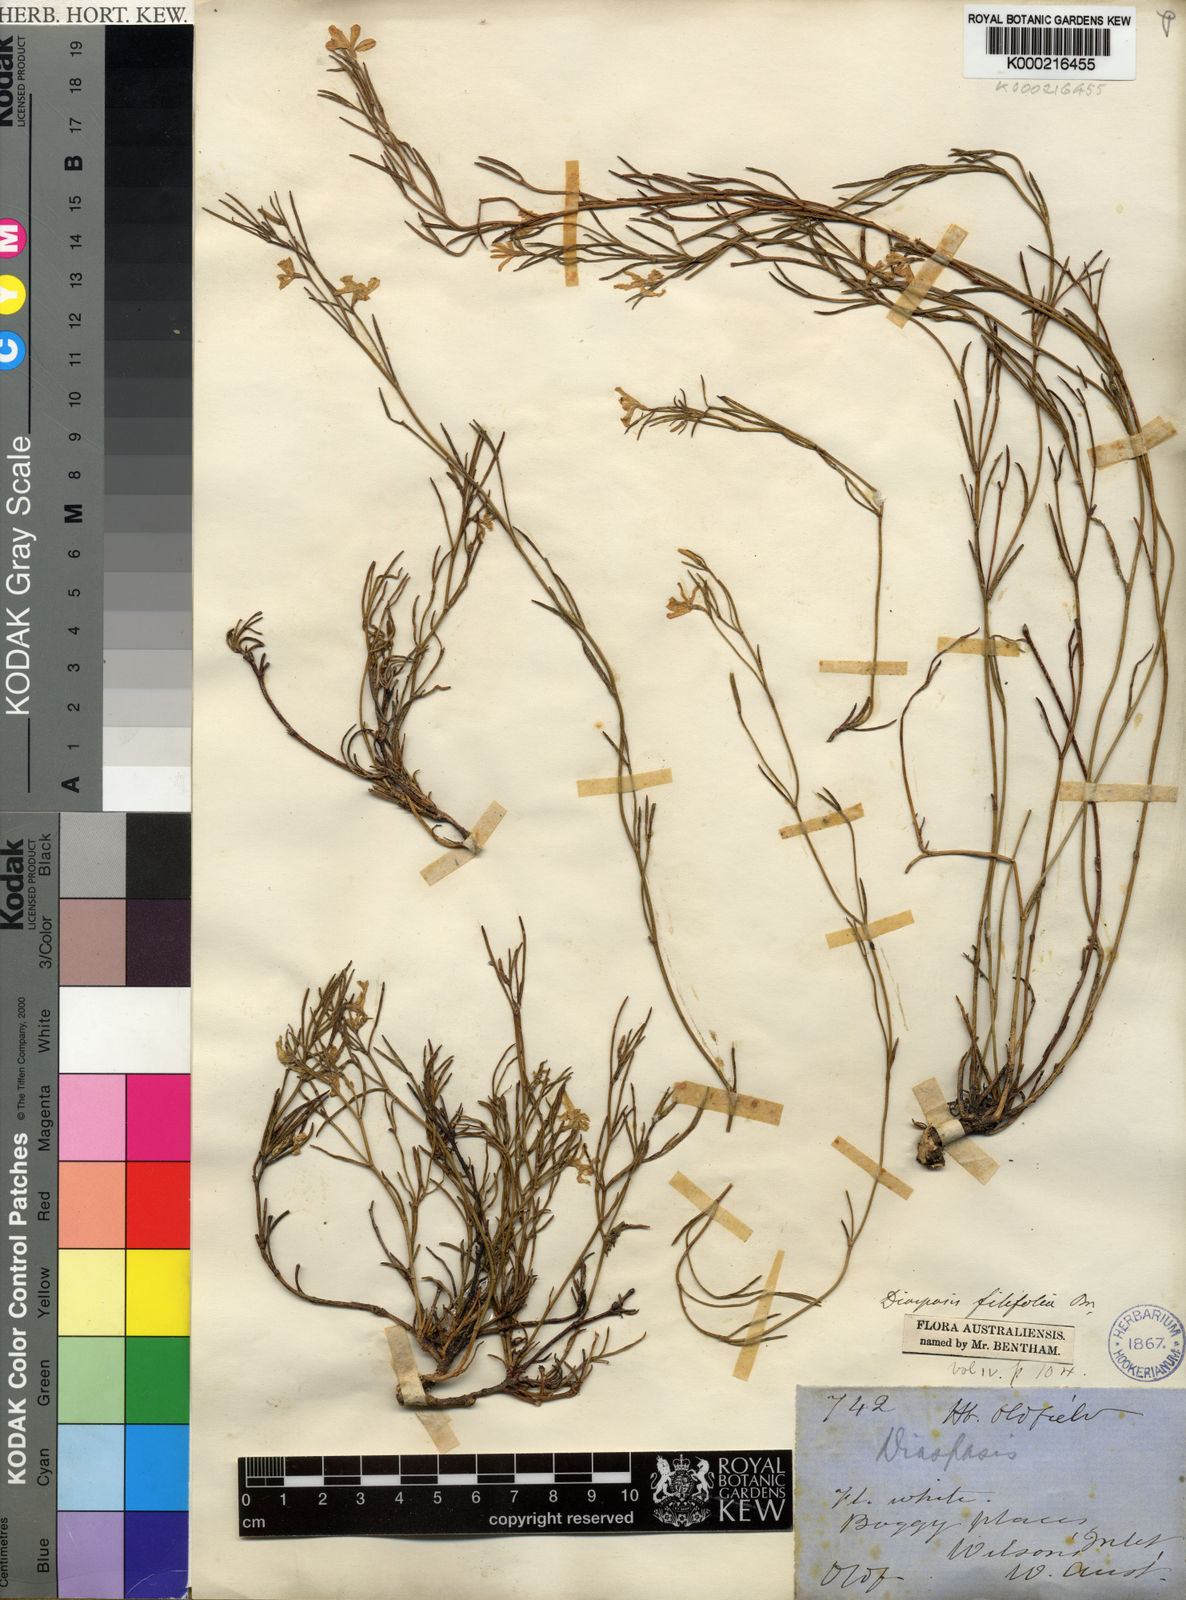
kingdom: Plantae
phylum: Tracheophyta
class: Magnoliopsida
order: Asterales
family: Goodeniaceae
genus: Scaevola
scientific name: Scaevola filifolia
